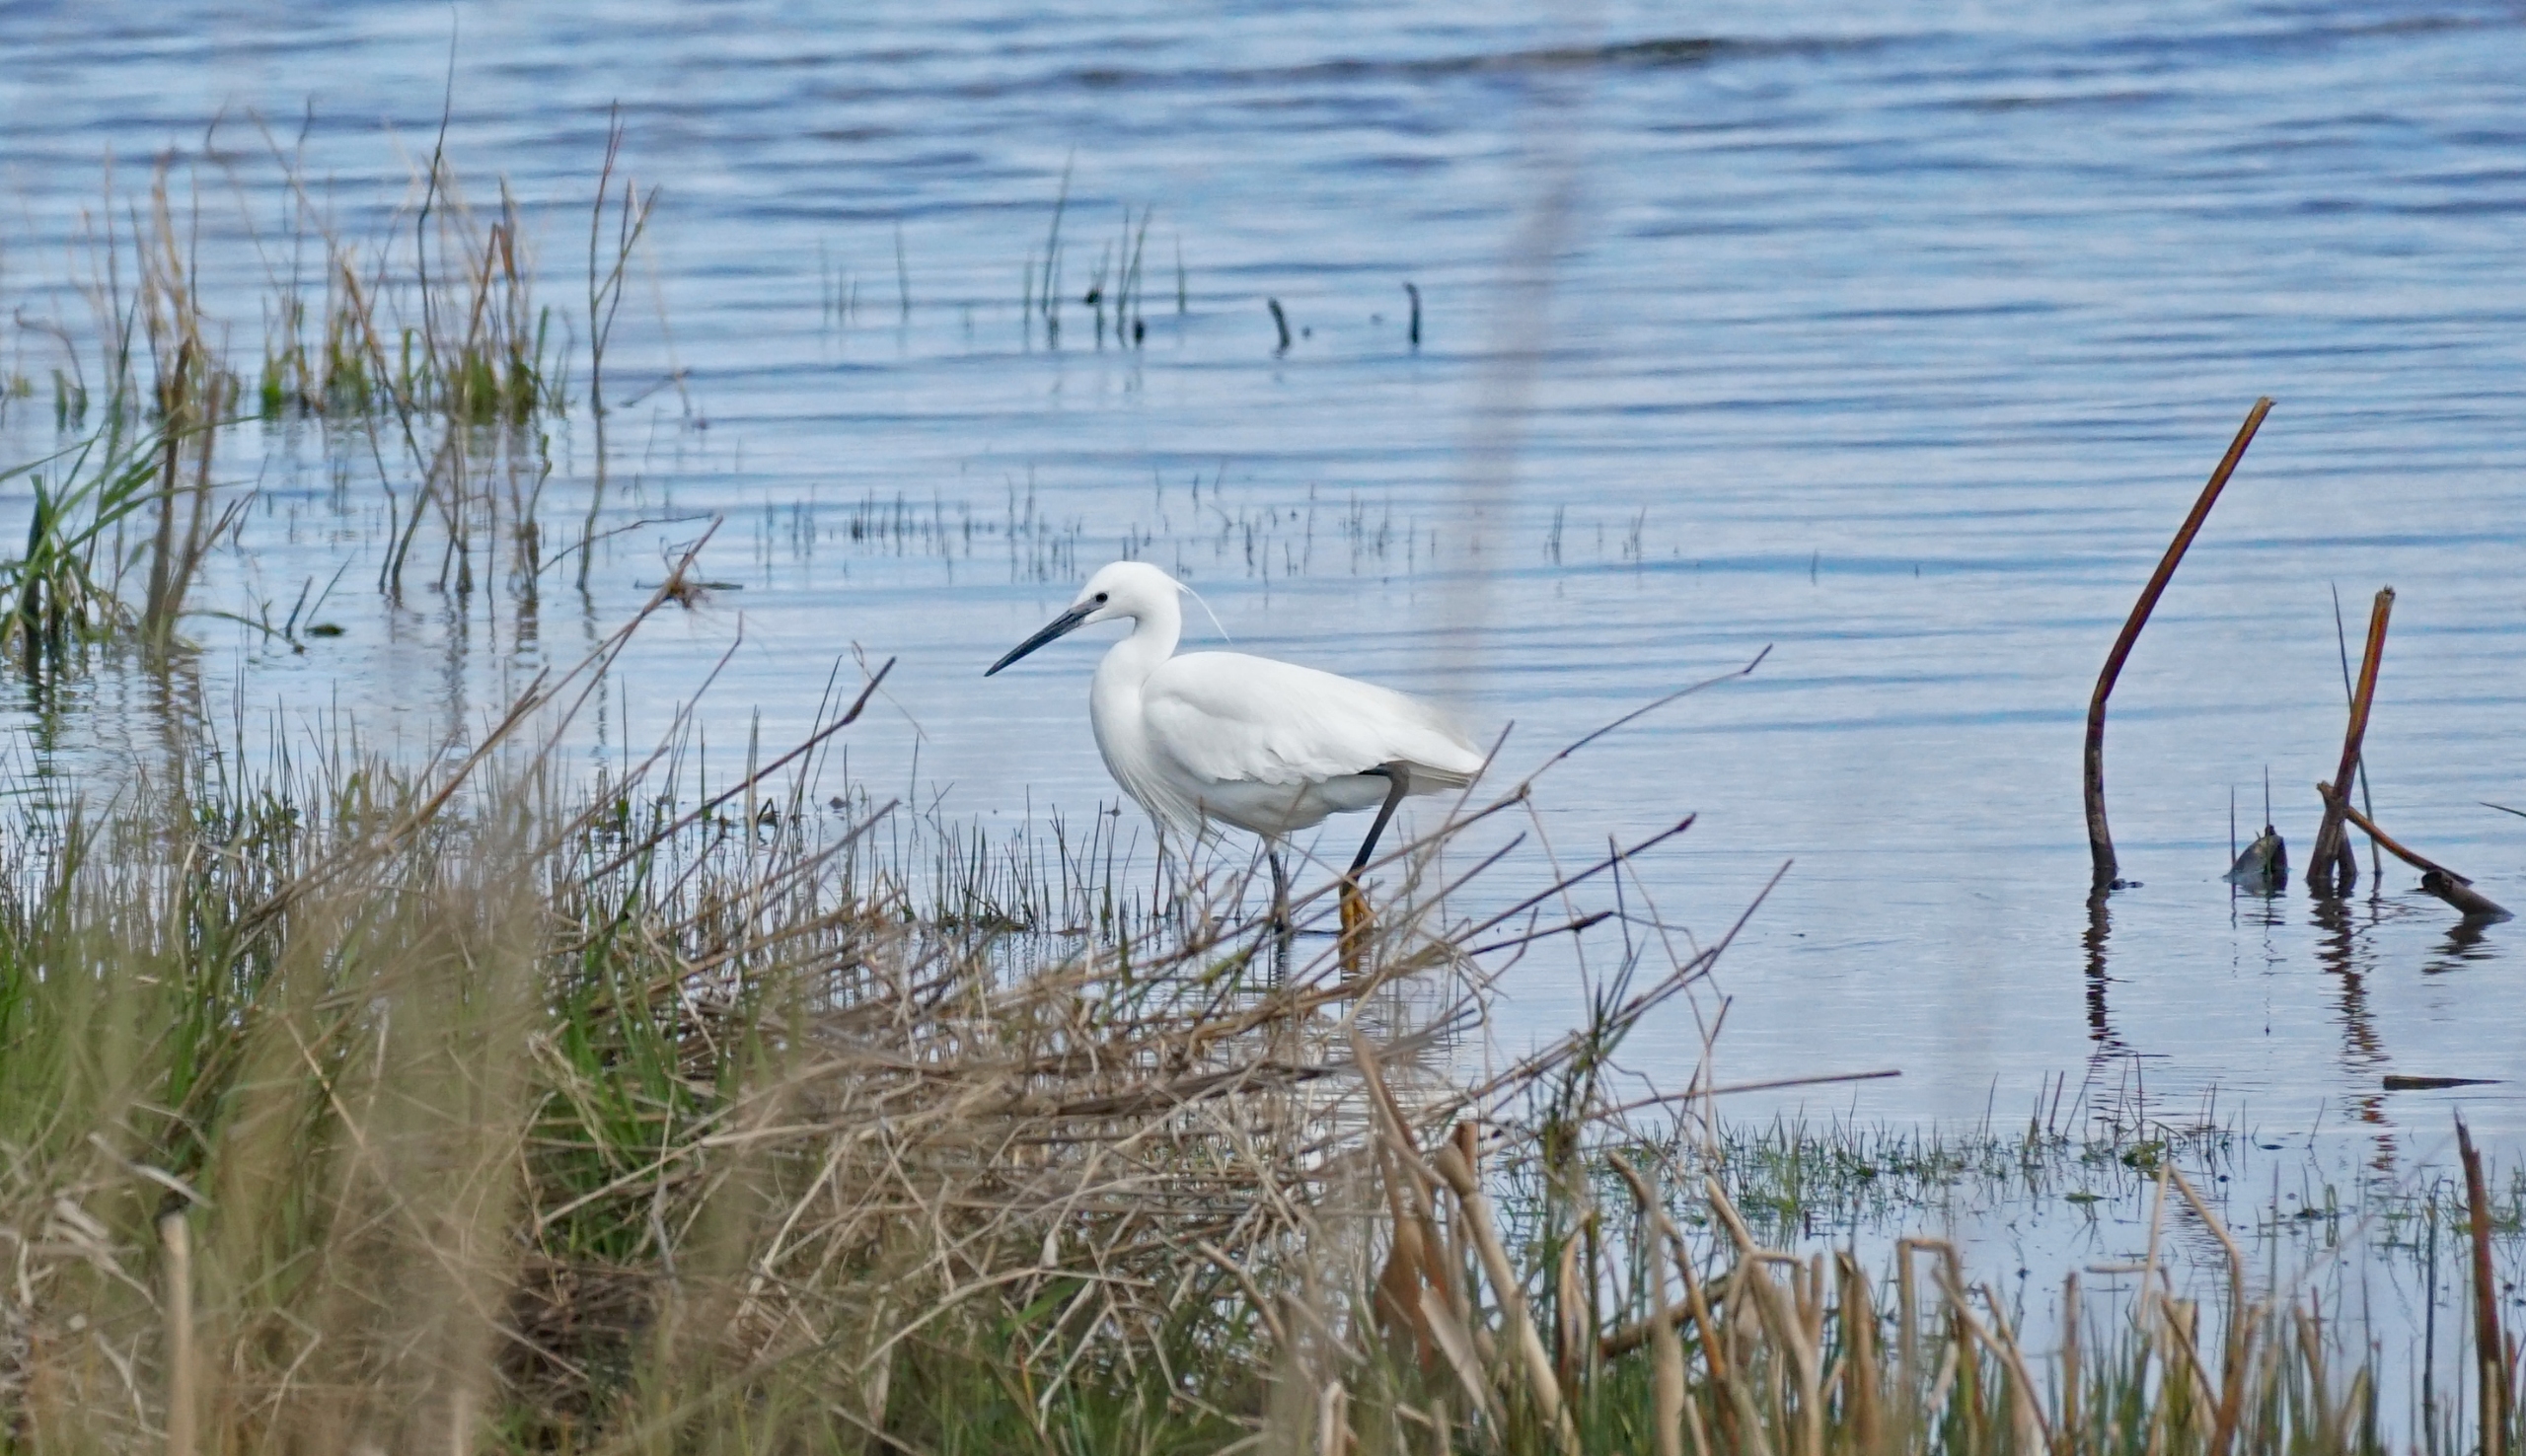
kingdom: Animalia
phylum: Chordata
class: Aves
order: Pelecaniformes
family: Ardeidae
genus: Egretta
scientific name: Egretta garzetta
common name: Silkehejre
